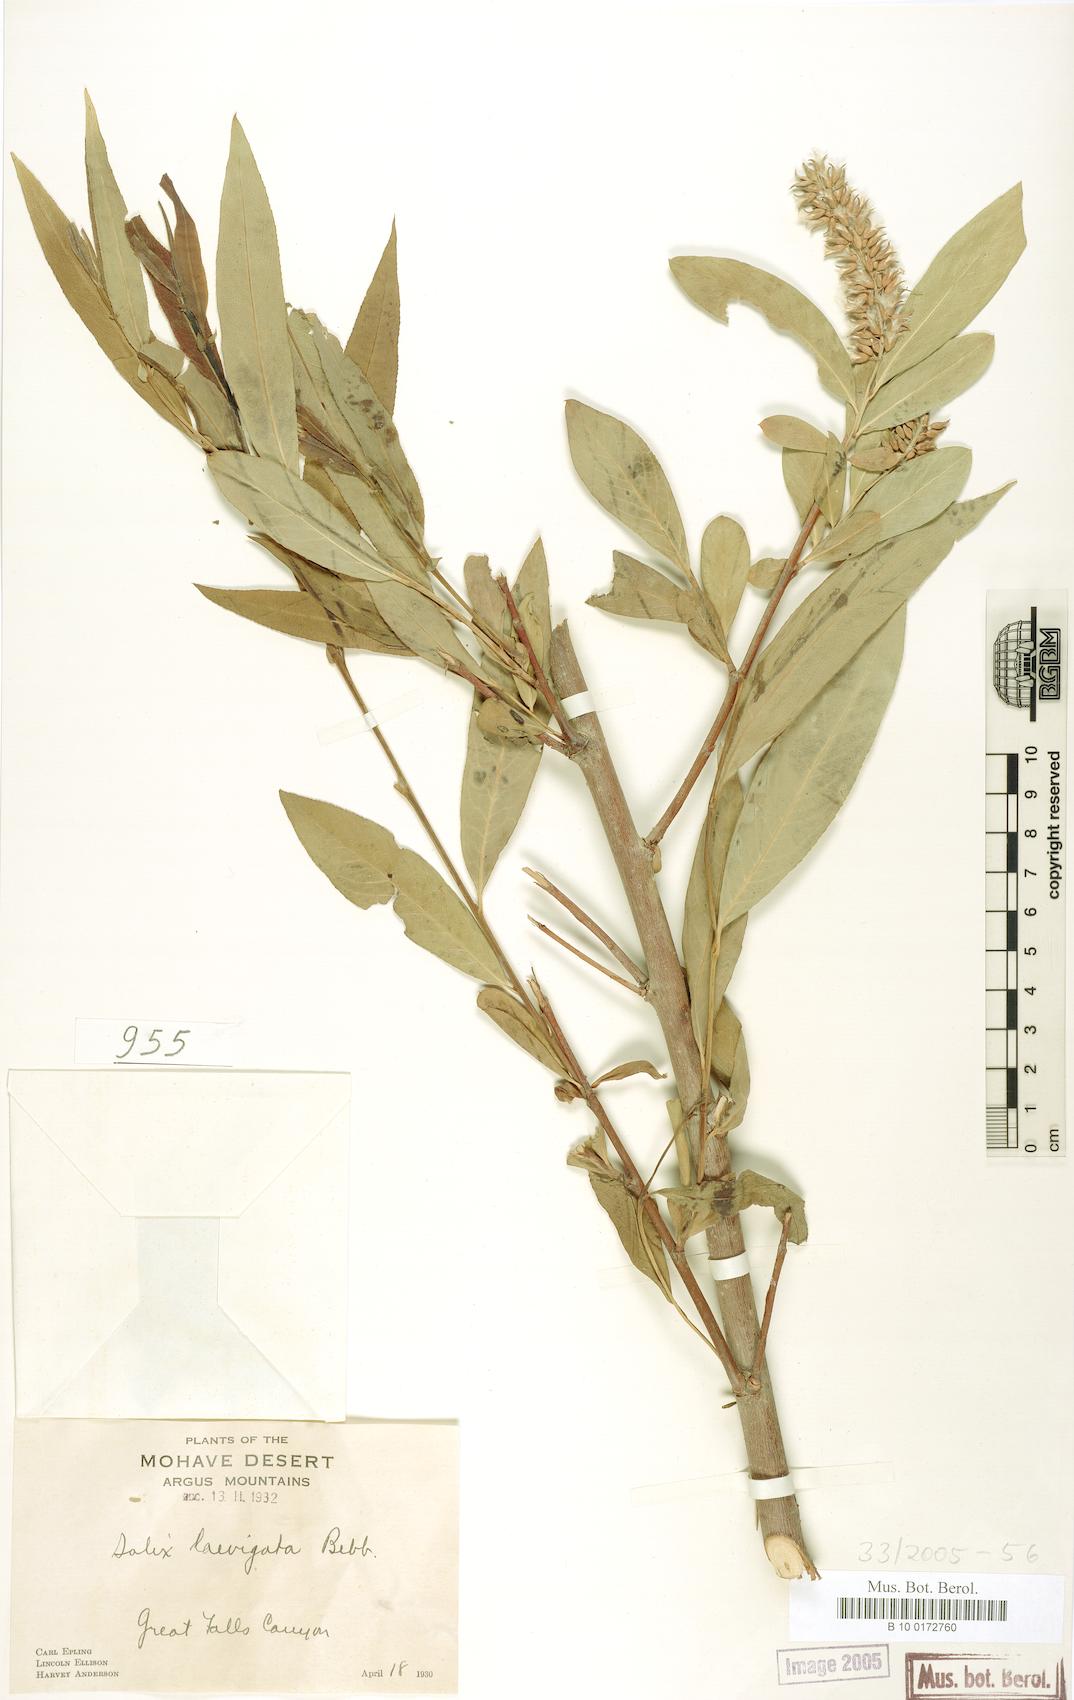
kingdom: Plantae
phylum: Tracheophyta
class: Magnoliopsida
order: Malpighiales
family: Salicaceae
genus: Salix
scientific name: Salix laevigata
